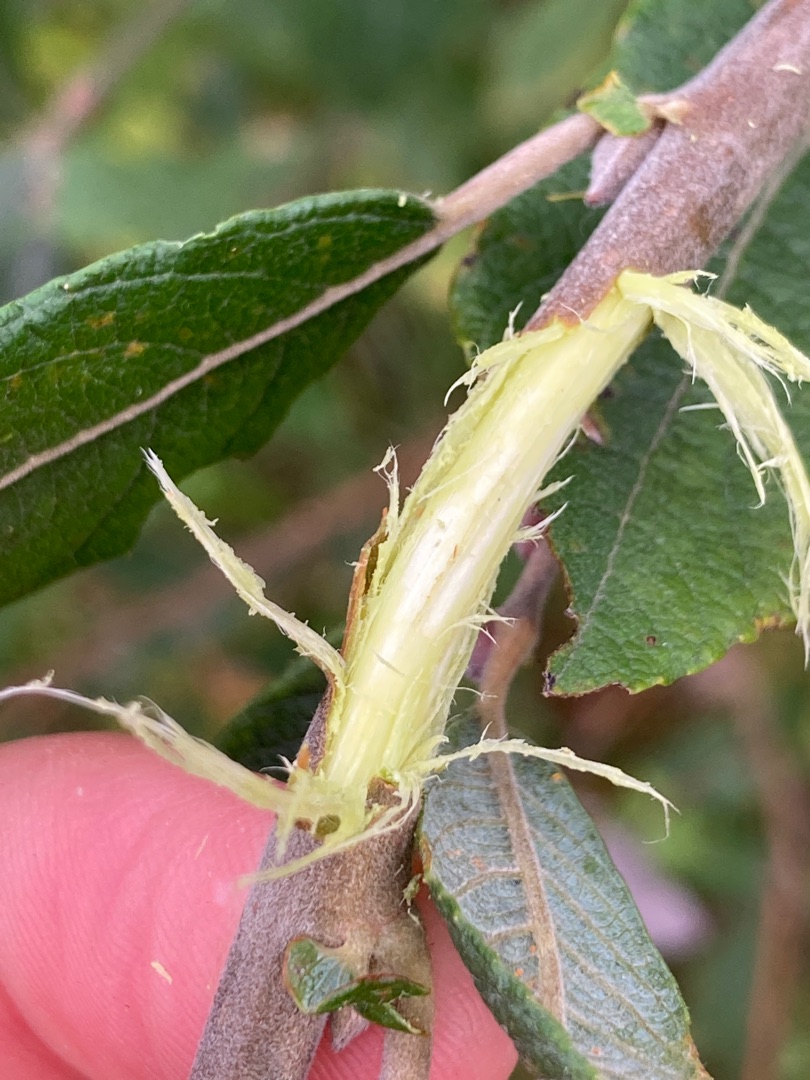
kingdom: Plantae
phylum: Tracheophyta
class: Magnoliopsida
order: Malpighiales
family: Salicaceae
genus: Salix
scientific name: Salix cinerea
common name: Grå-pil
